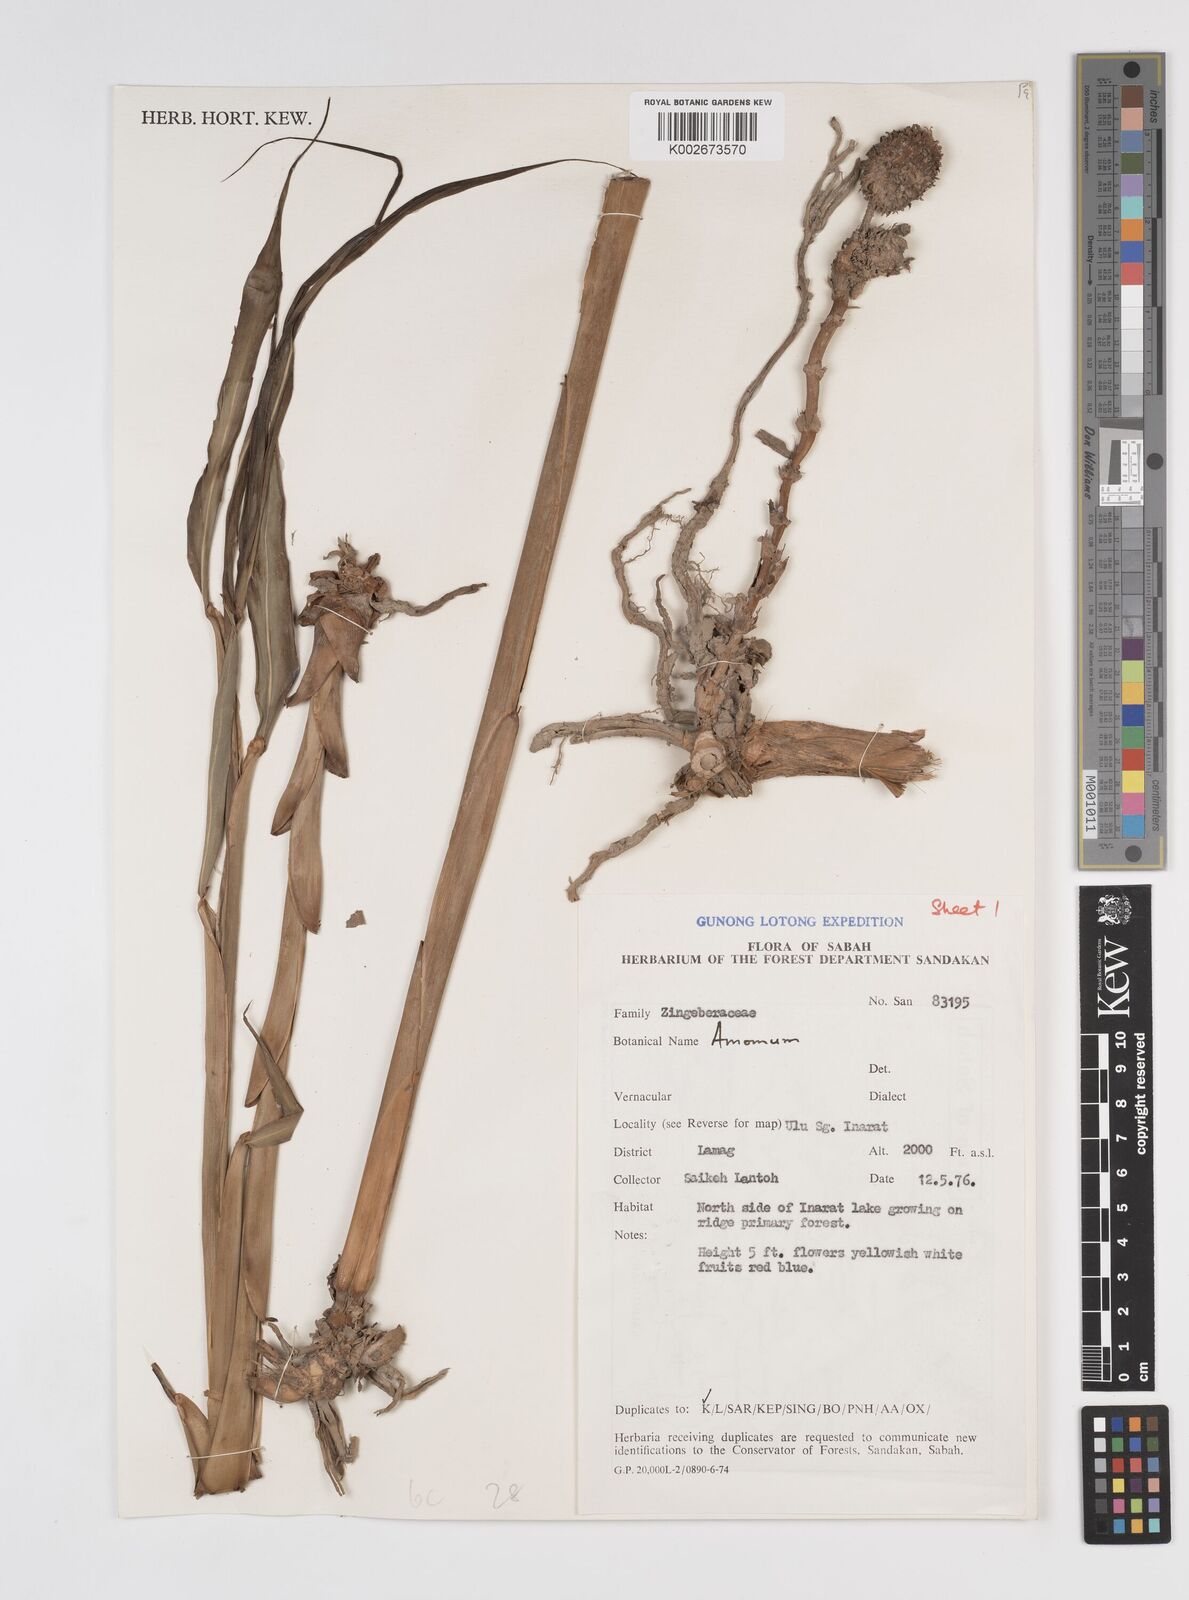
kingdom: Plantae
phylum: Tracheophyta
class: Liliopsida
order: Zingiberales
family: Zingiberaceae
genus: Amomum
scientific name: Amomum
